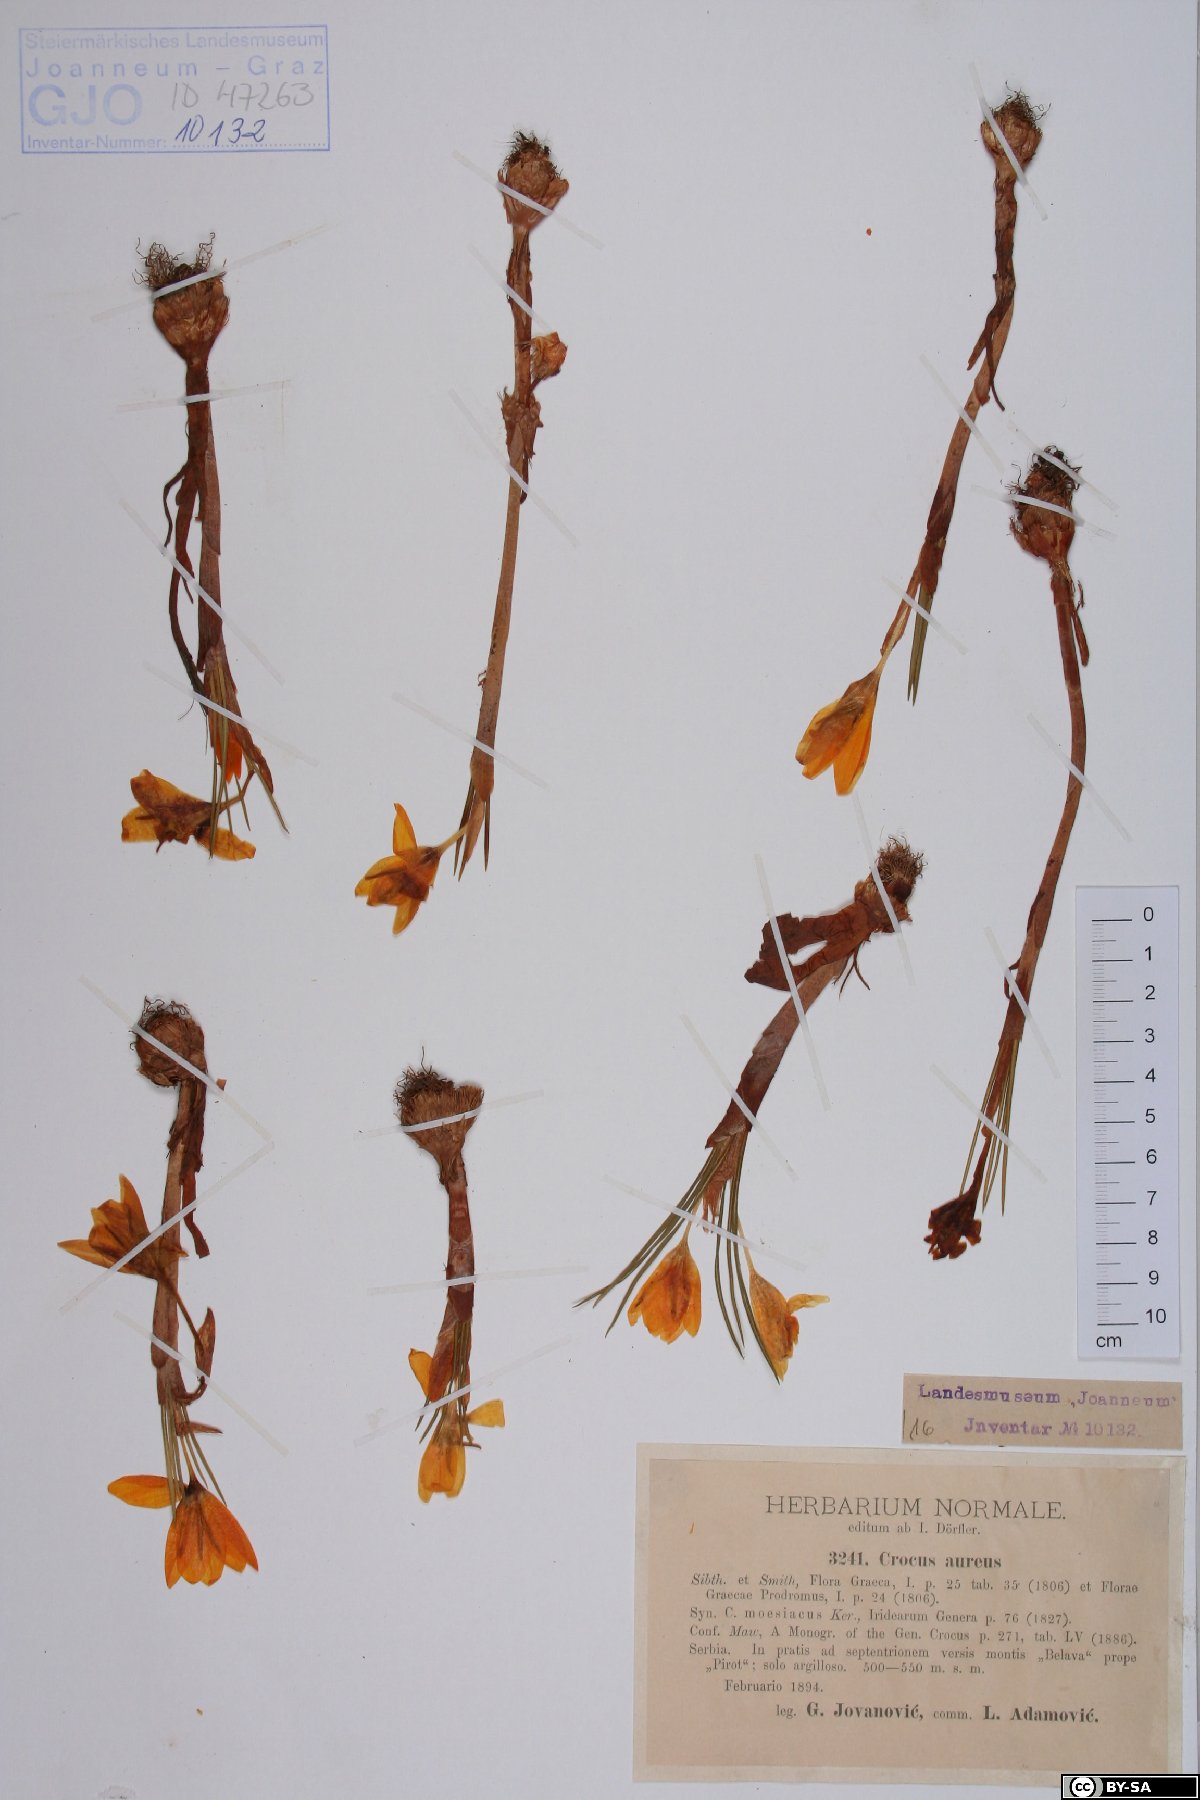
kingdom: Plantae
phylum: Tracheophyta
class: Liliopsida
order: Asparagales
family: Iridaceae
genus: Crocus
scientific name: Crocus flavus
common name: Yellow crocus
